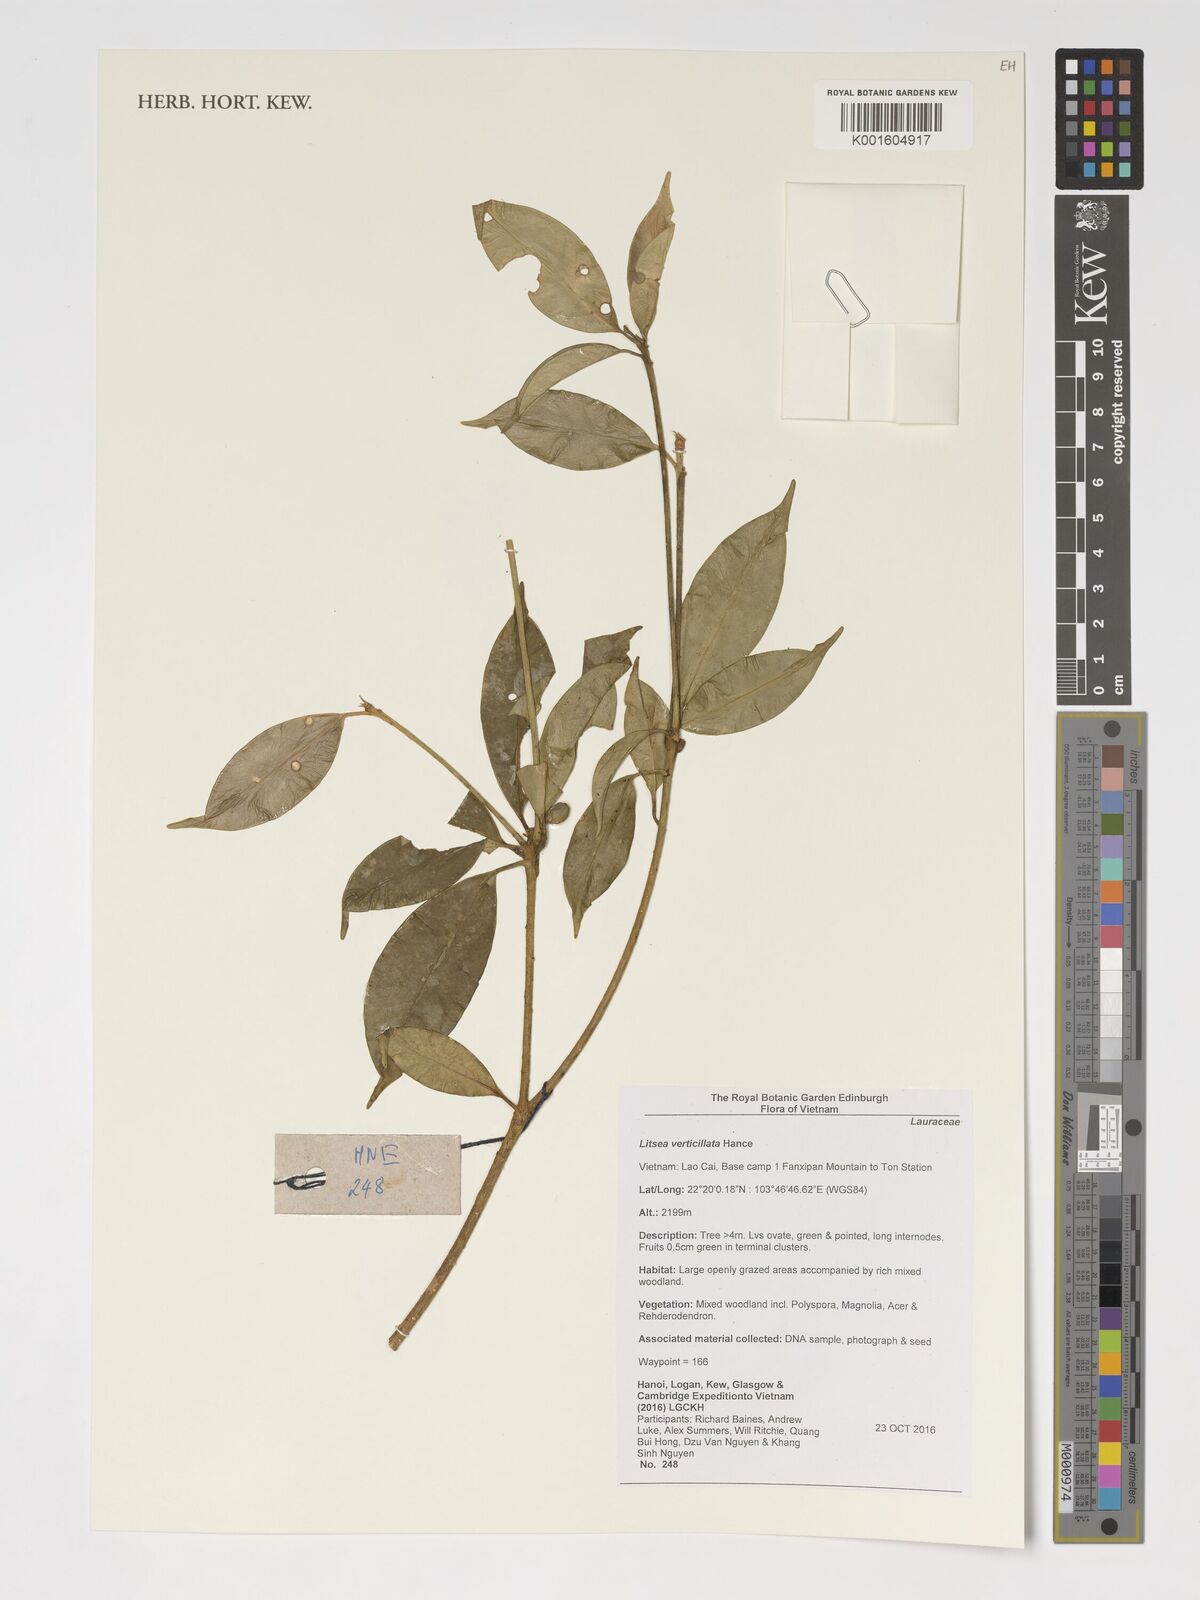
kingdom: Plantae
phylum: Tracheophyta
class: Magnoliopsida
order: Laurales
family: Lauraceae
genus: Litsea
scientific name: Litsea verticillata
